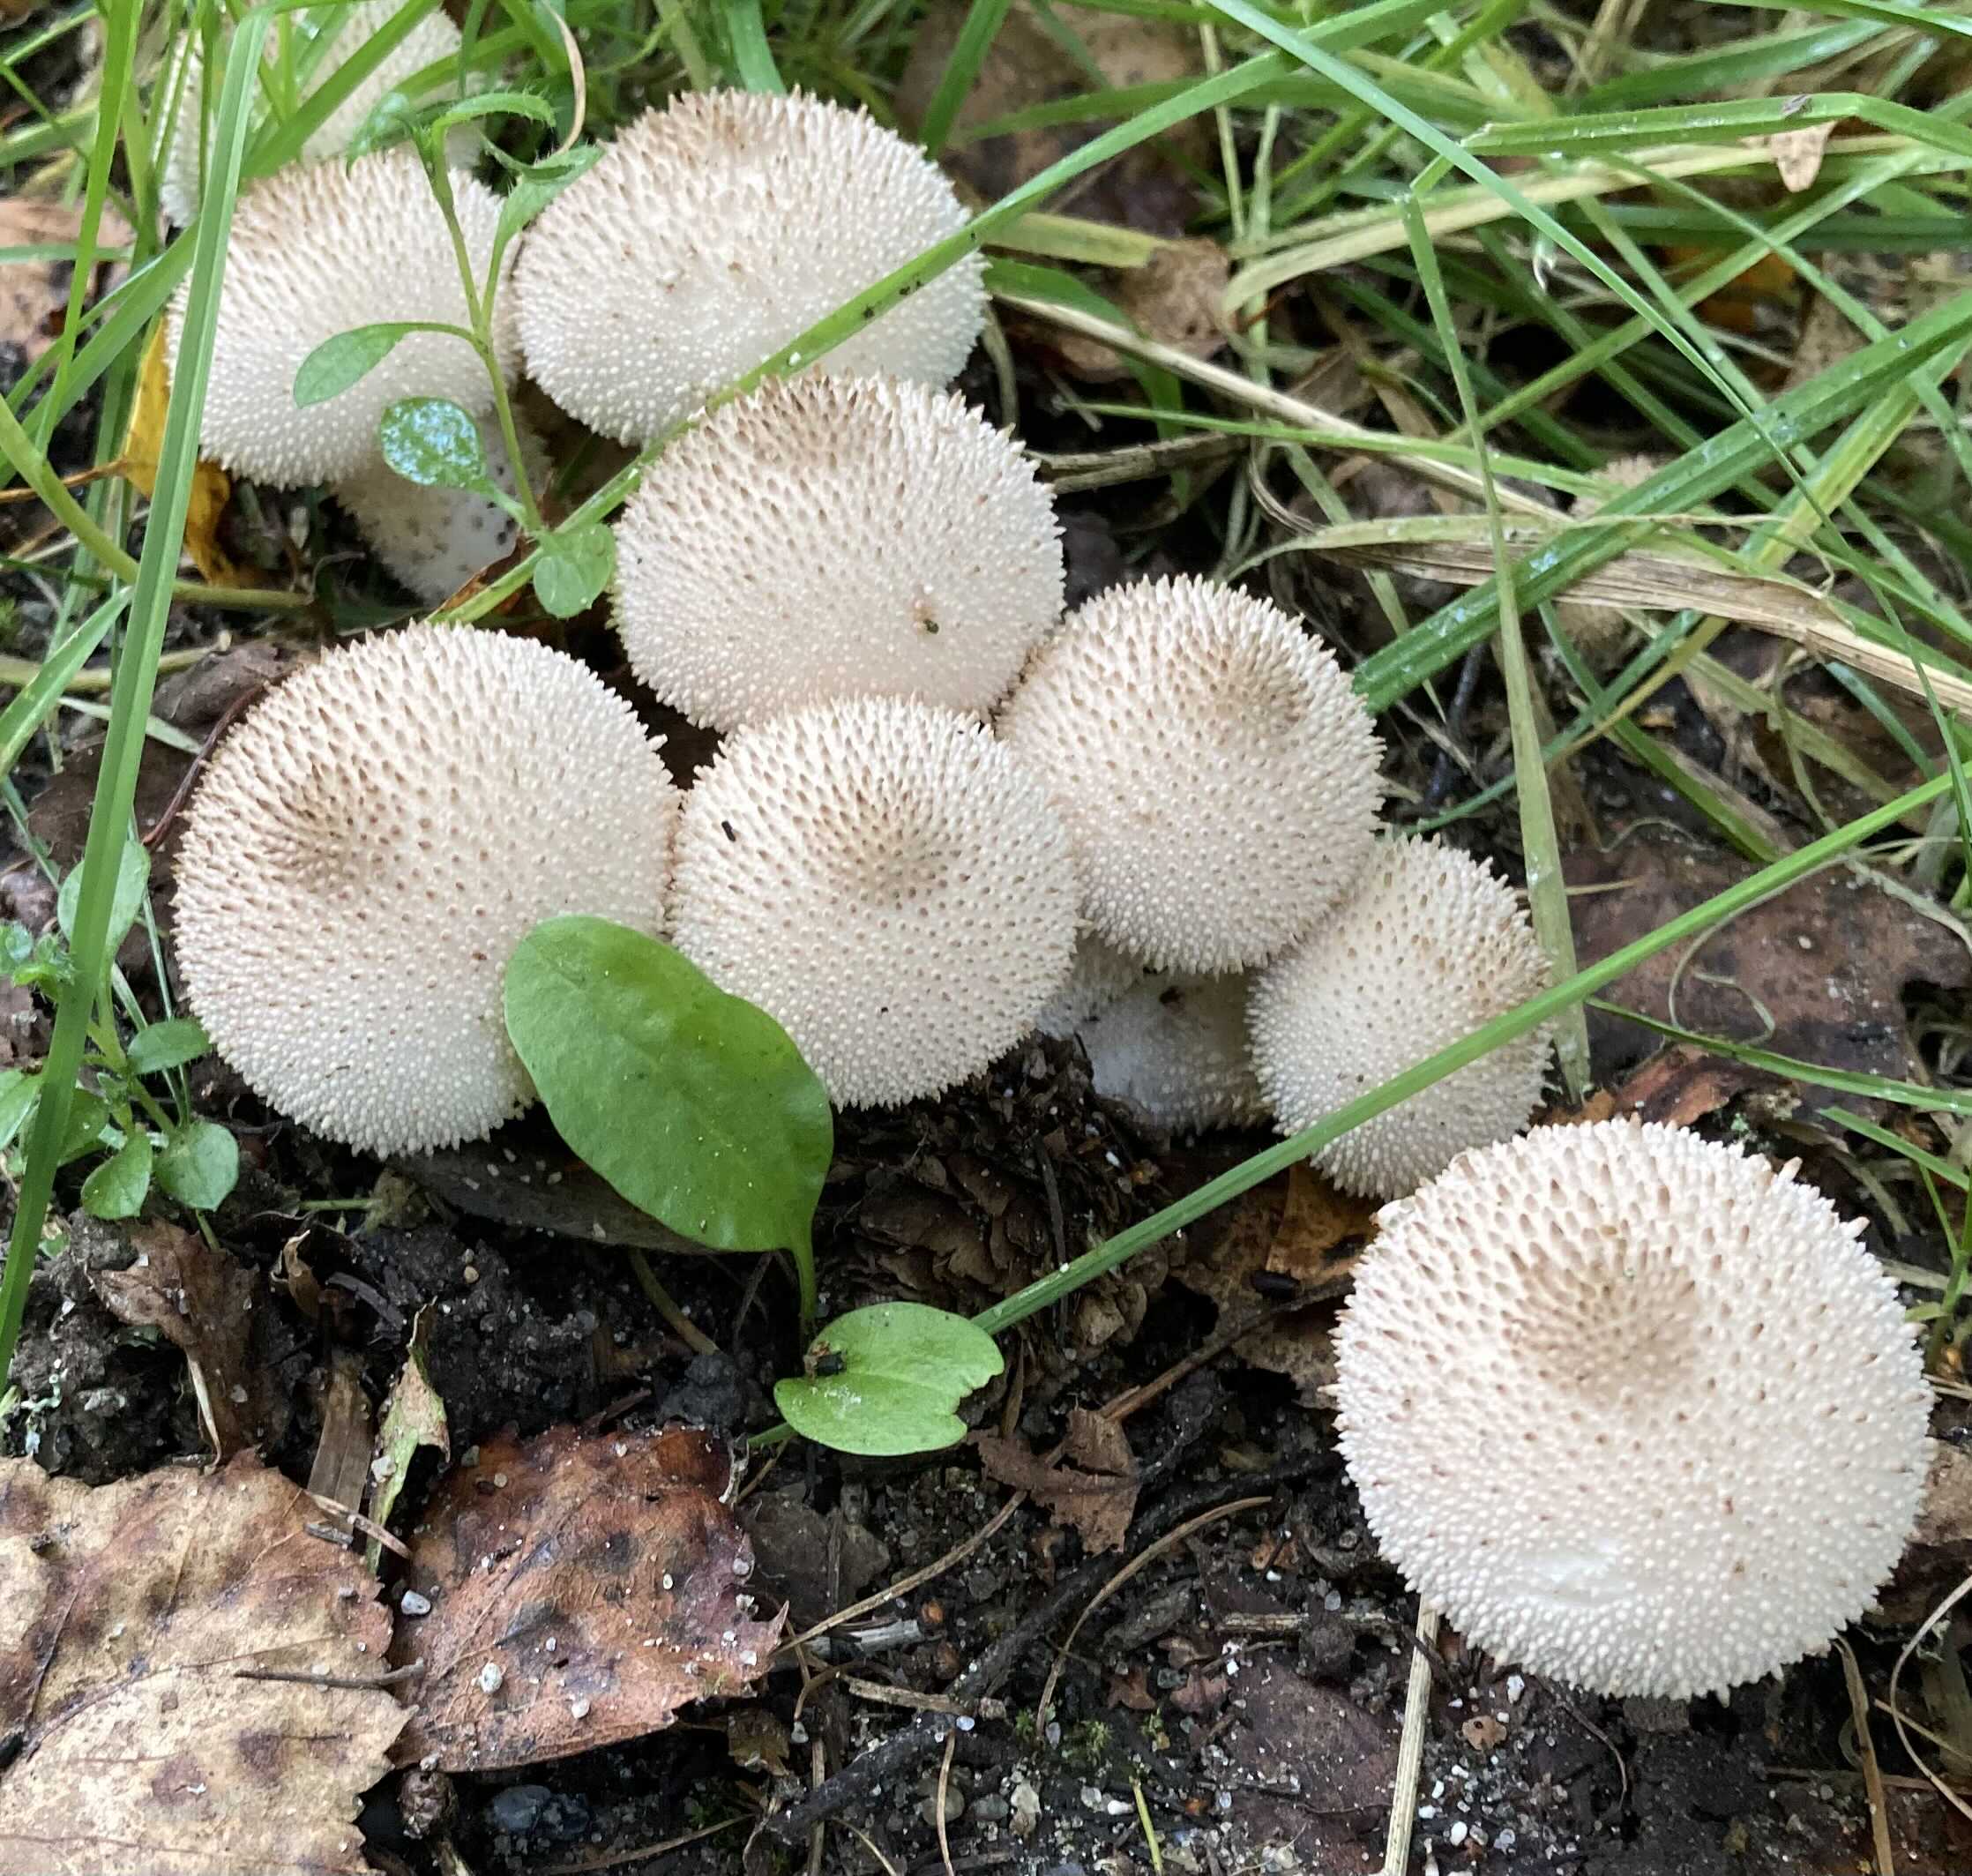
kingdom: Fungi
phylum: Basidiomycota
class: Agaricomycetes
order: Agaricales
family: Lycoperdaceae
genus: Lycoperdon
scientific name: Lycoperdon perlatum
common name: krystal-støvbold
